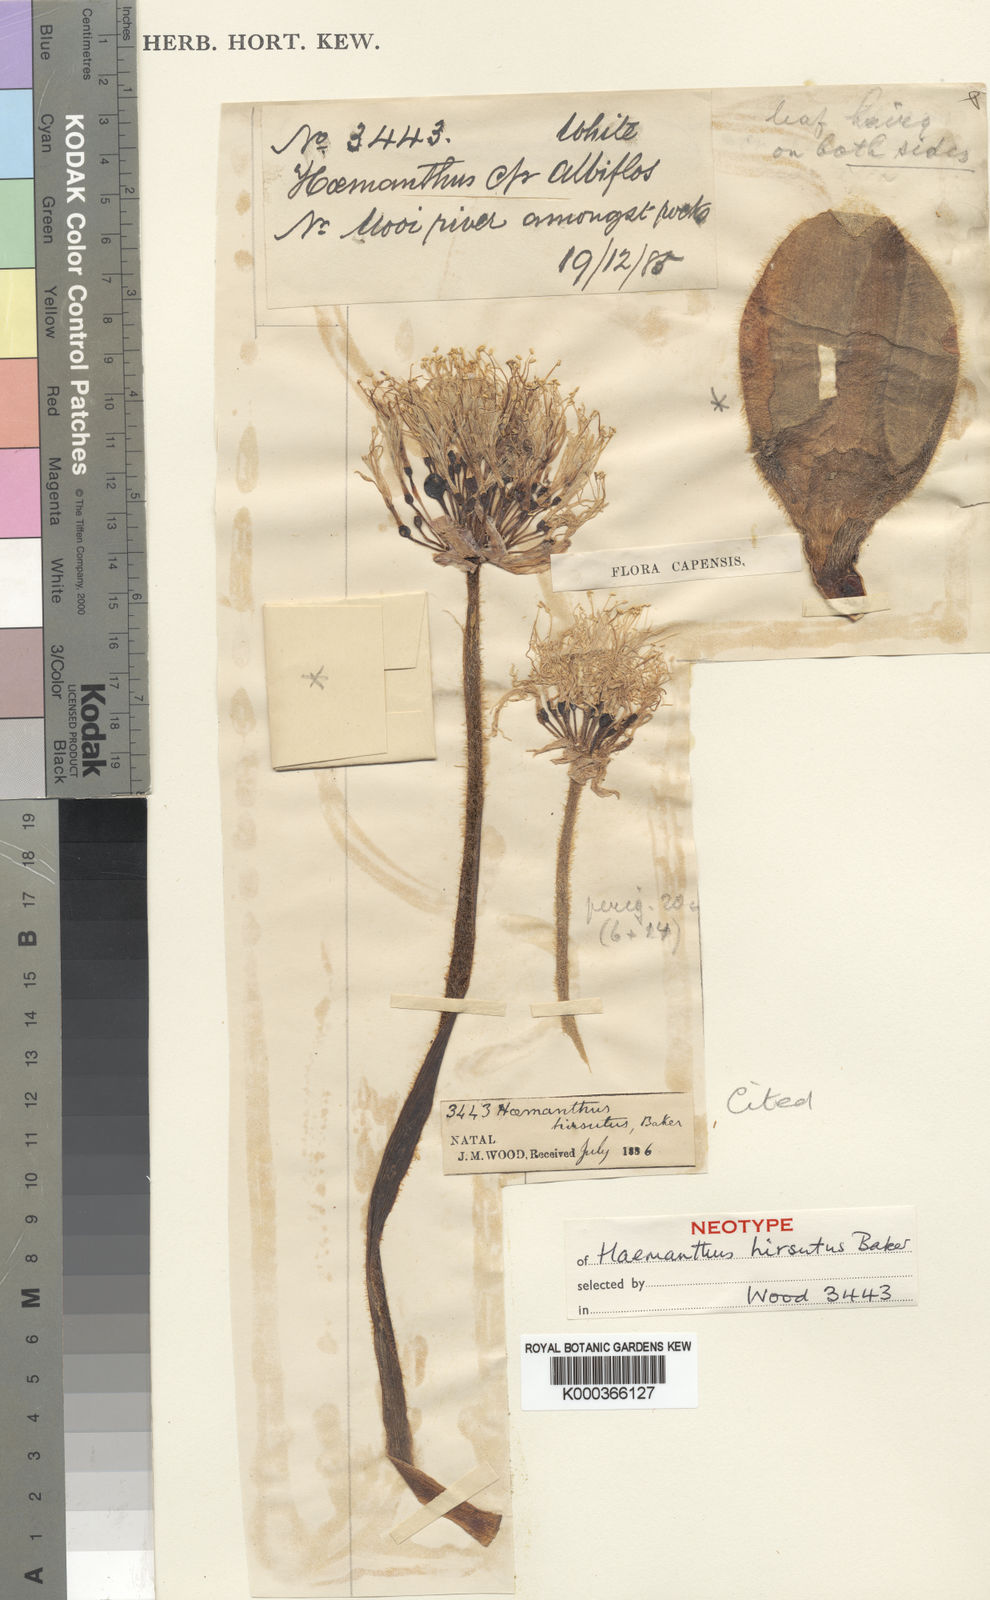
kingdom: Plantae
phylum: Tracheophyta
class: Liliopsida
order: Asparagales
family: Amaryllidaceae
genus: Haemanthus
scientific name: Haemanthus humilis
